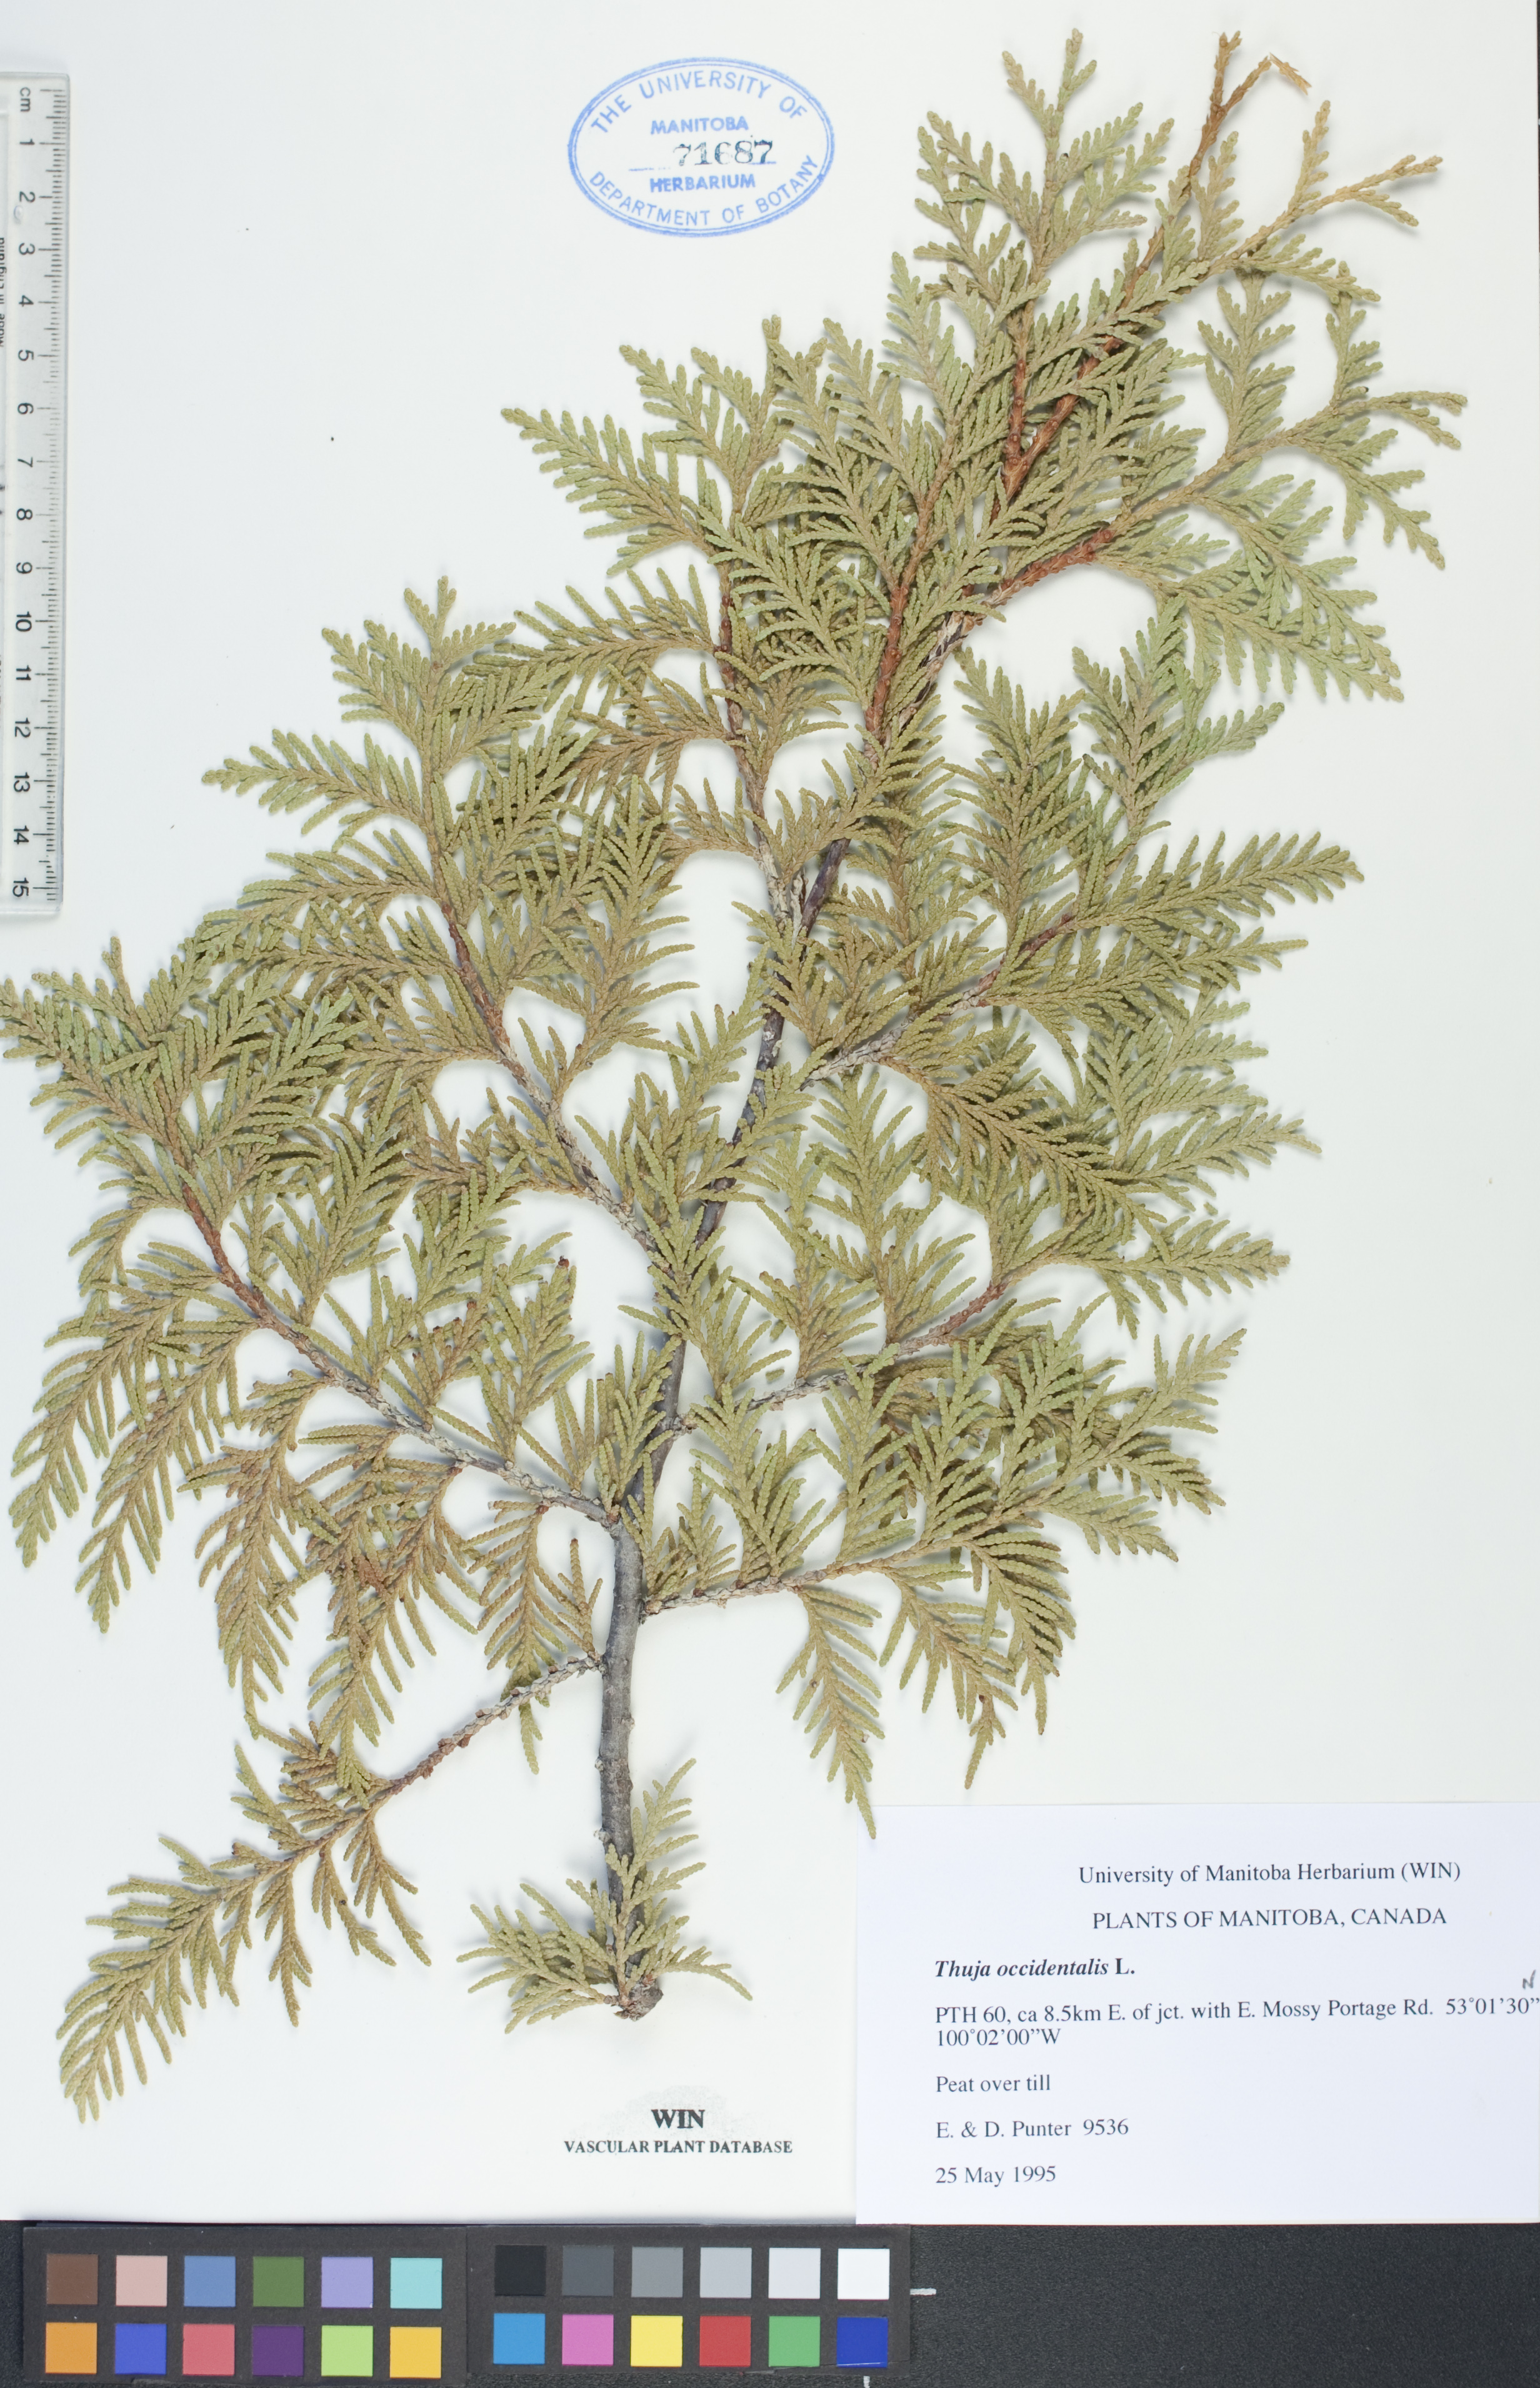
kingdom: Plantae
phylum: Tracheophyta
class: Pinopsida
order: Pinales
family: Cupressaceae
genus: Thuja
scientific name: Thuja occidentalis
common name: Northern white-cedar
